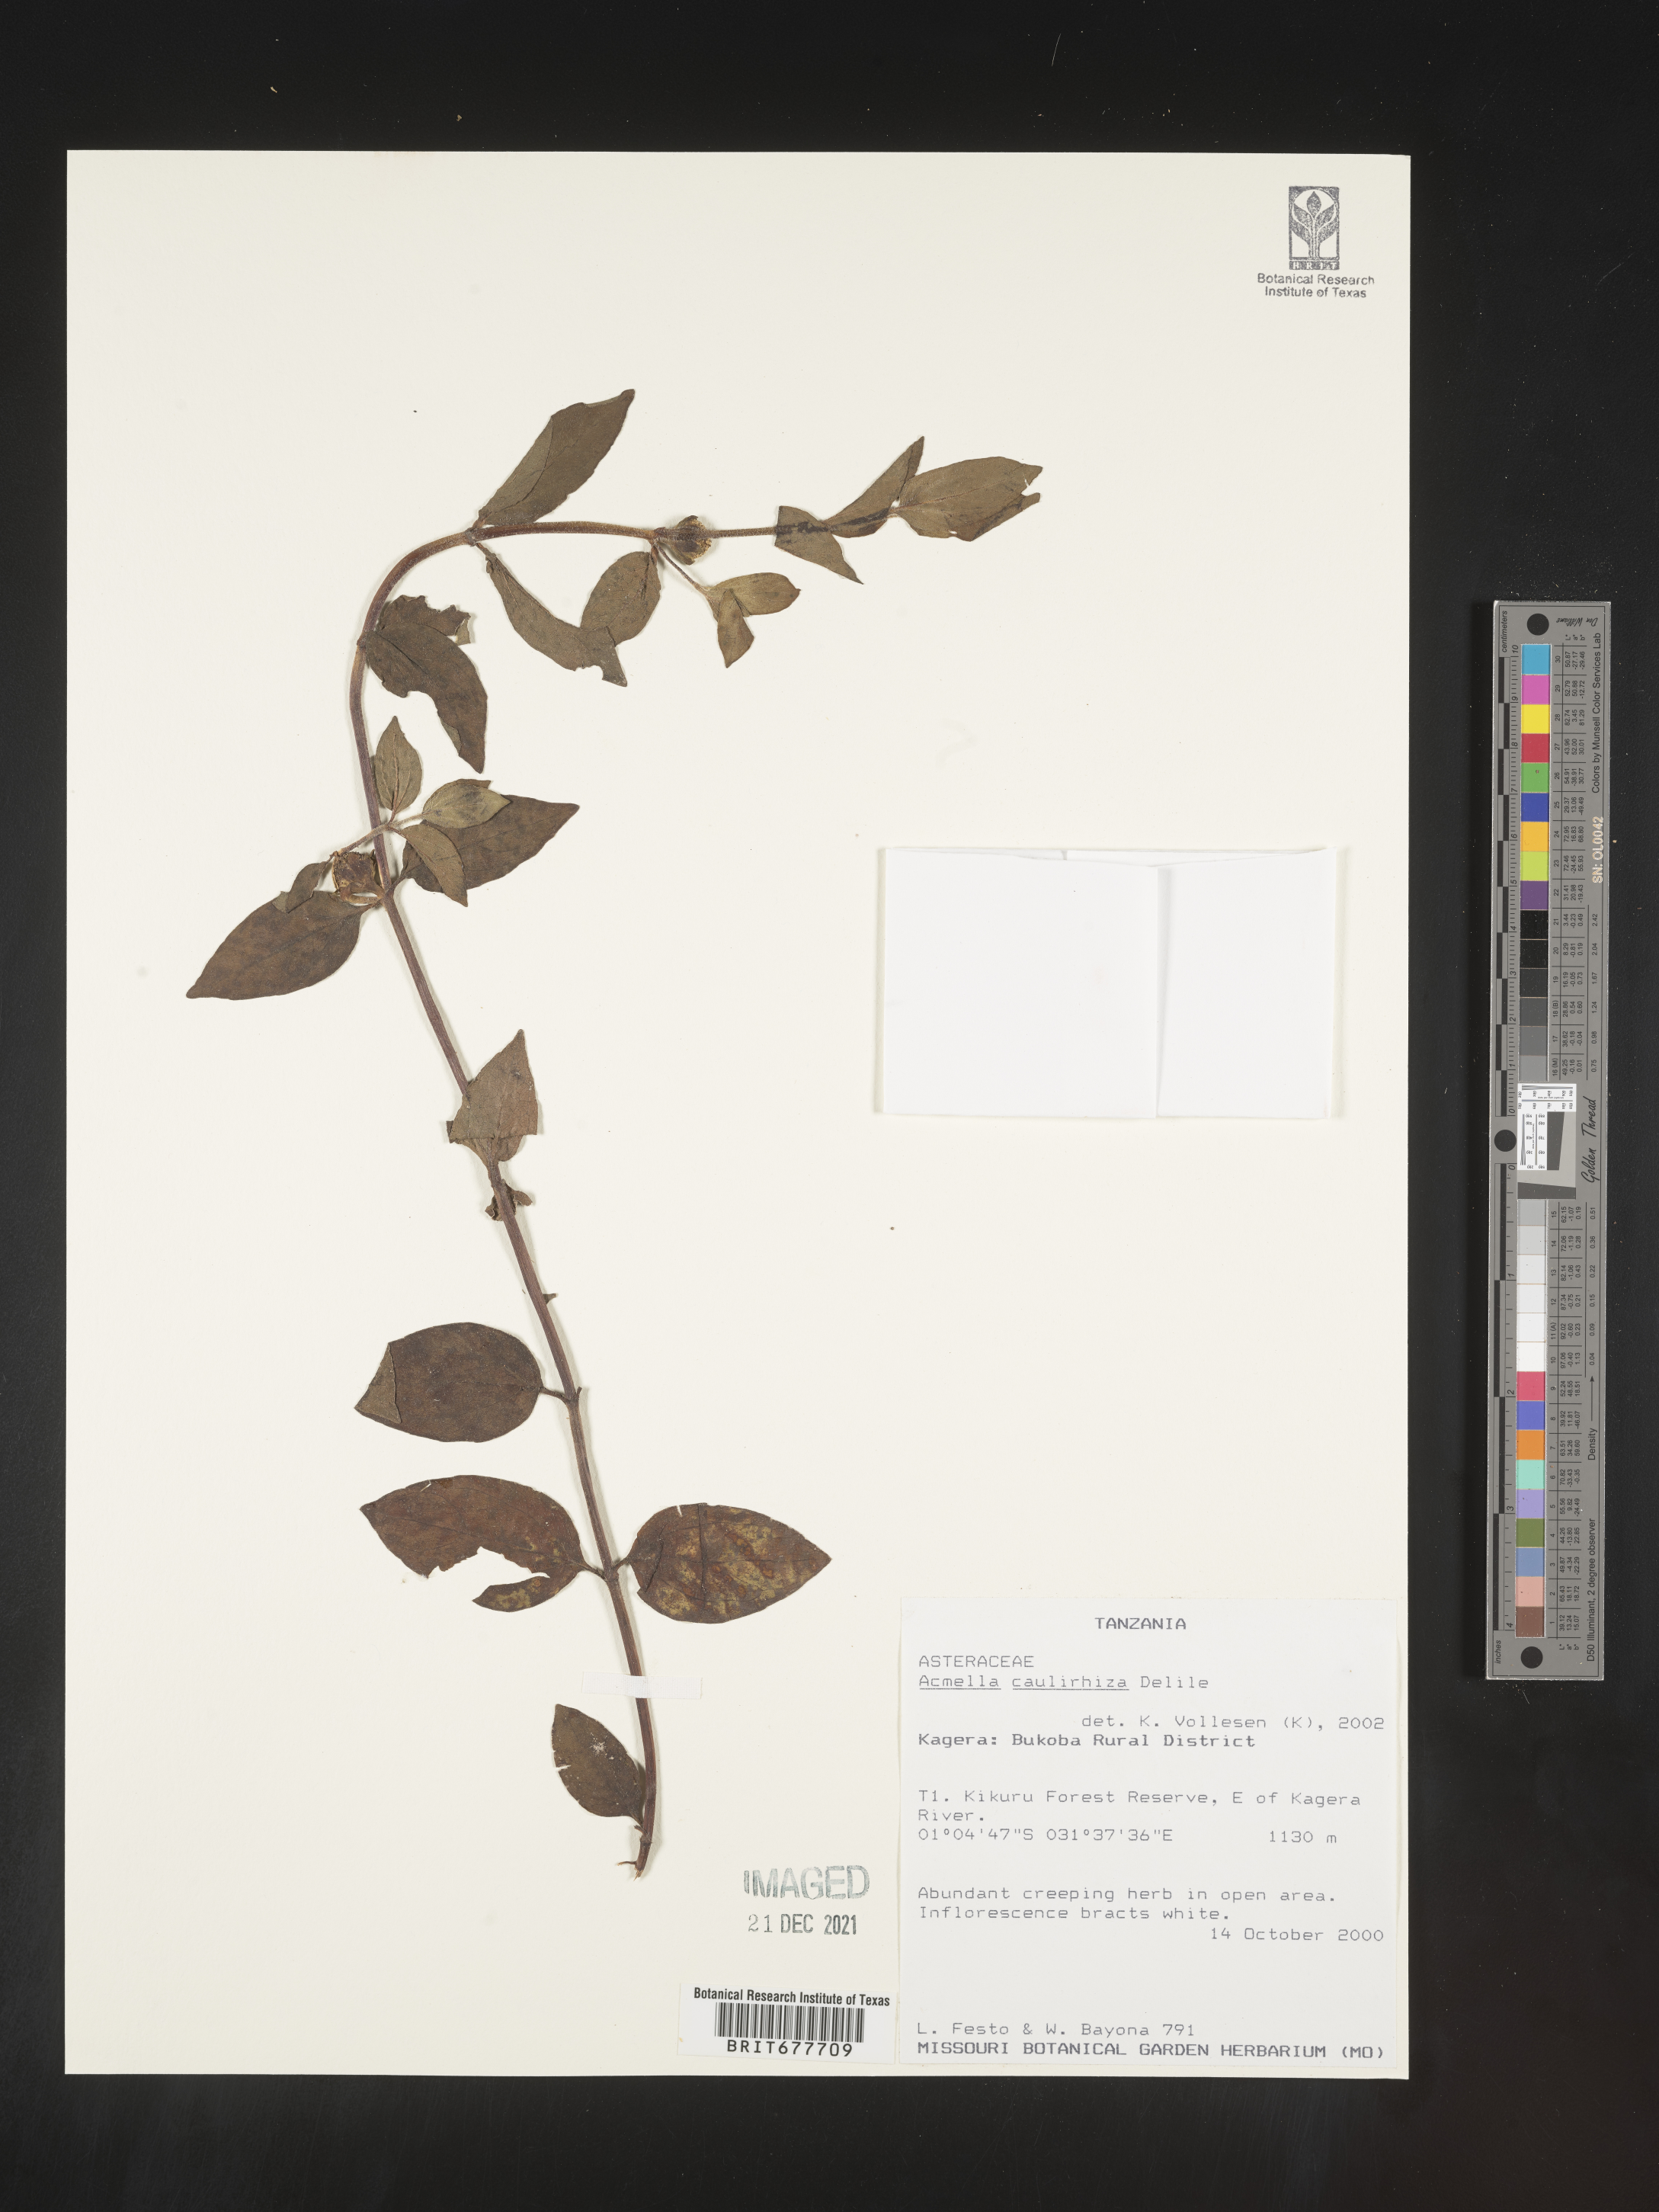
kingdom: Plantae
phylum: Tracheophyta
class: Magnoliopsida
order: Asterales
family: Asteraceae
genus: Acmella
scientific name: Acmella
